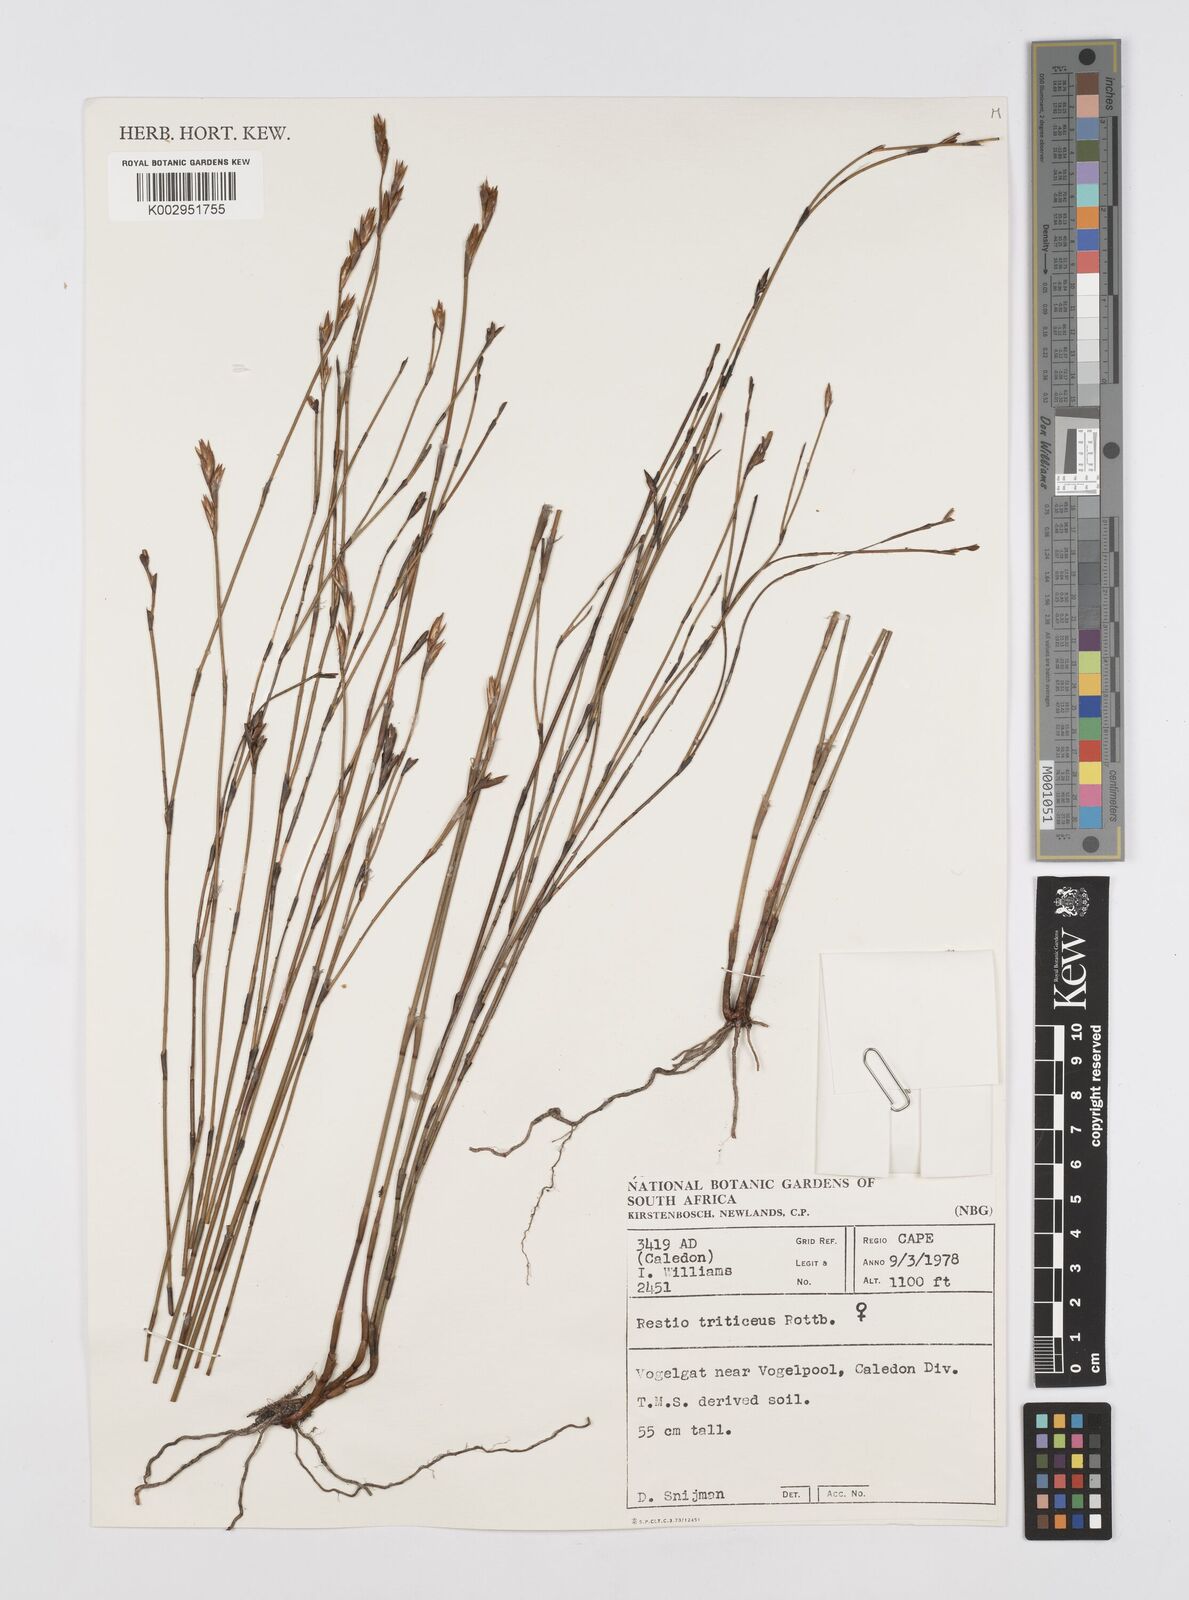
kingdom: Plantae
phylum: Tracheophyta
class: Liliopsida
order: Poales
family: Restionaceae
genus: Restio
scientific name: Restio triticeus
